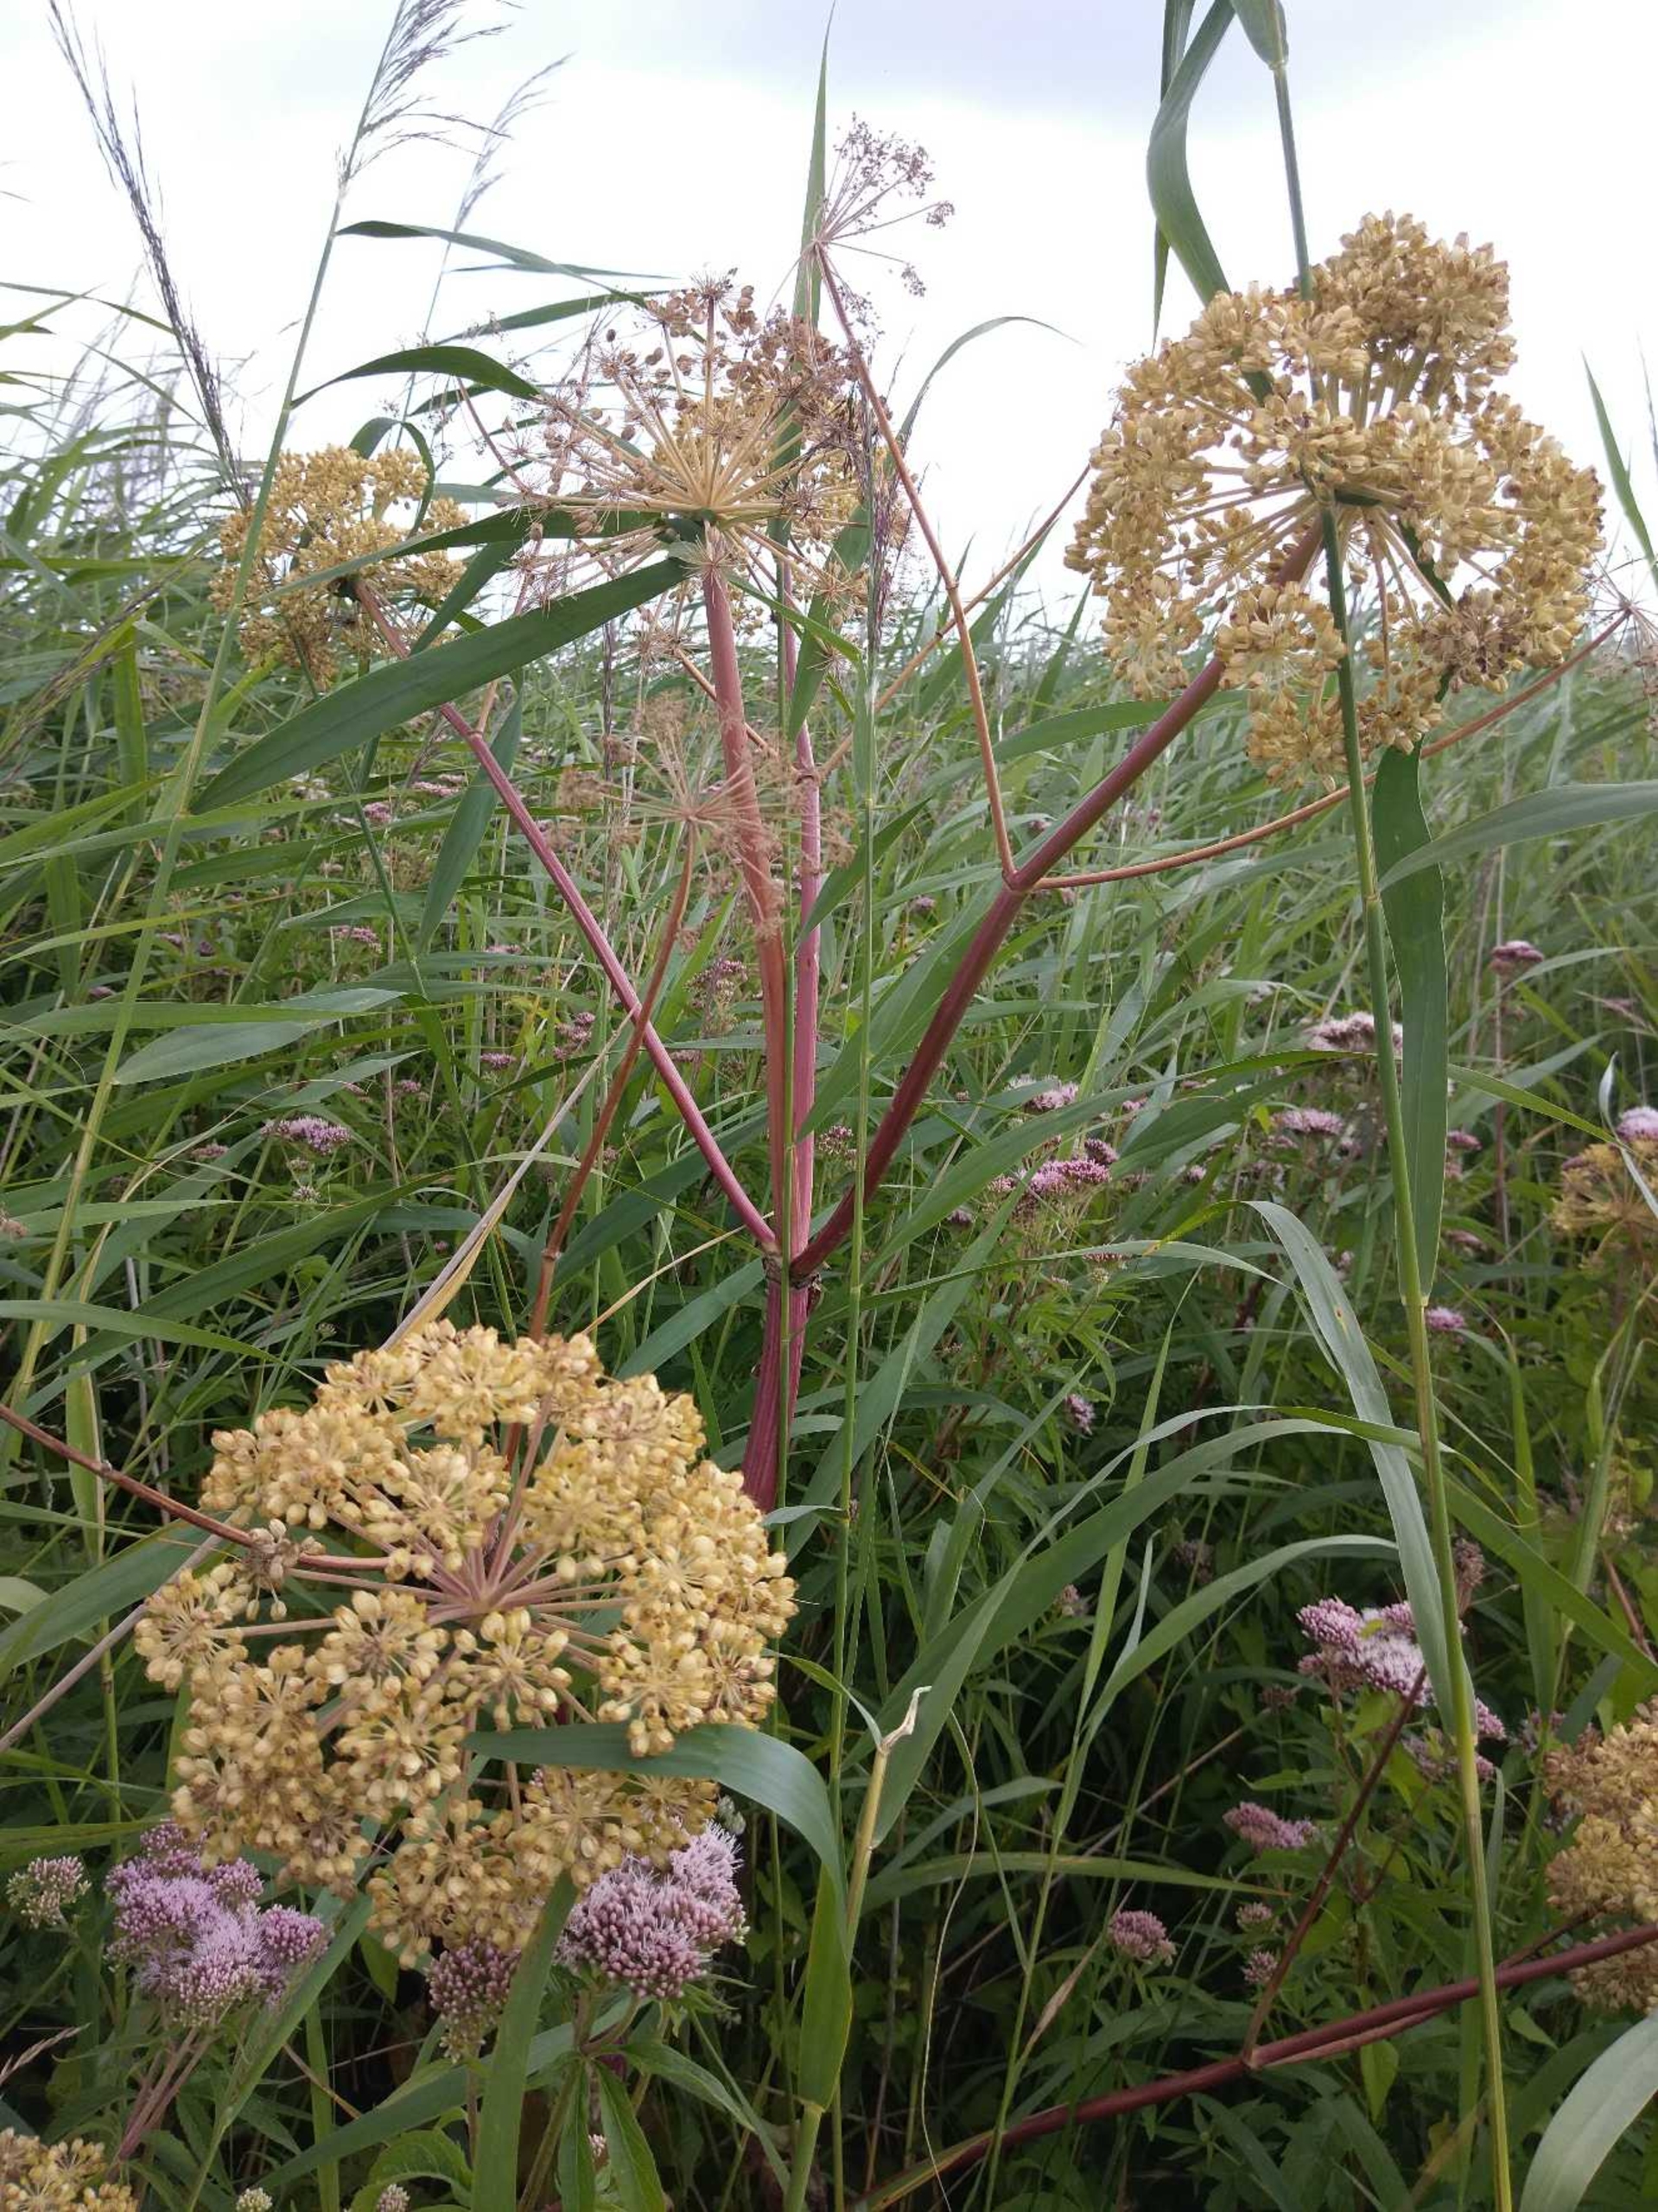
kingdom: Plantae
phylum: Tracheophyta
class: Magnoliopsida
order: Apiales
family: Apiaceae
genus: Angelica
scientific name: Angelica archangelica
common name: Kvan
